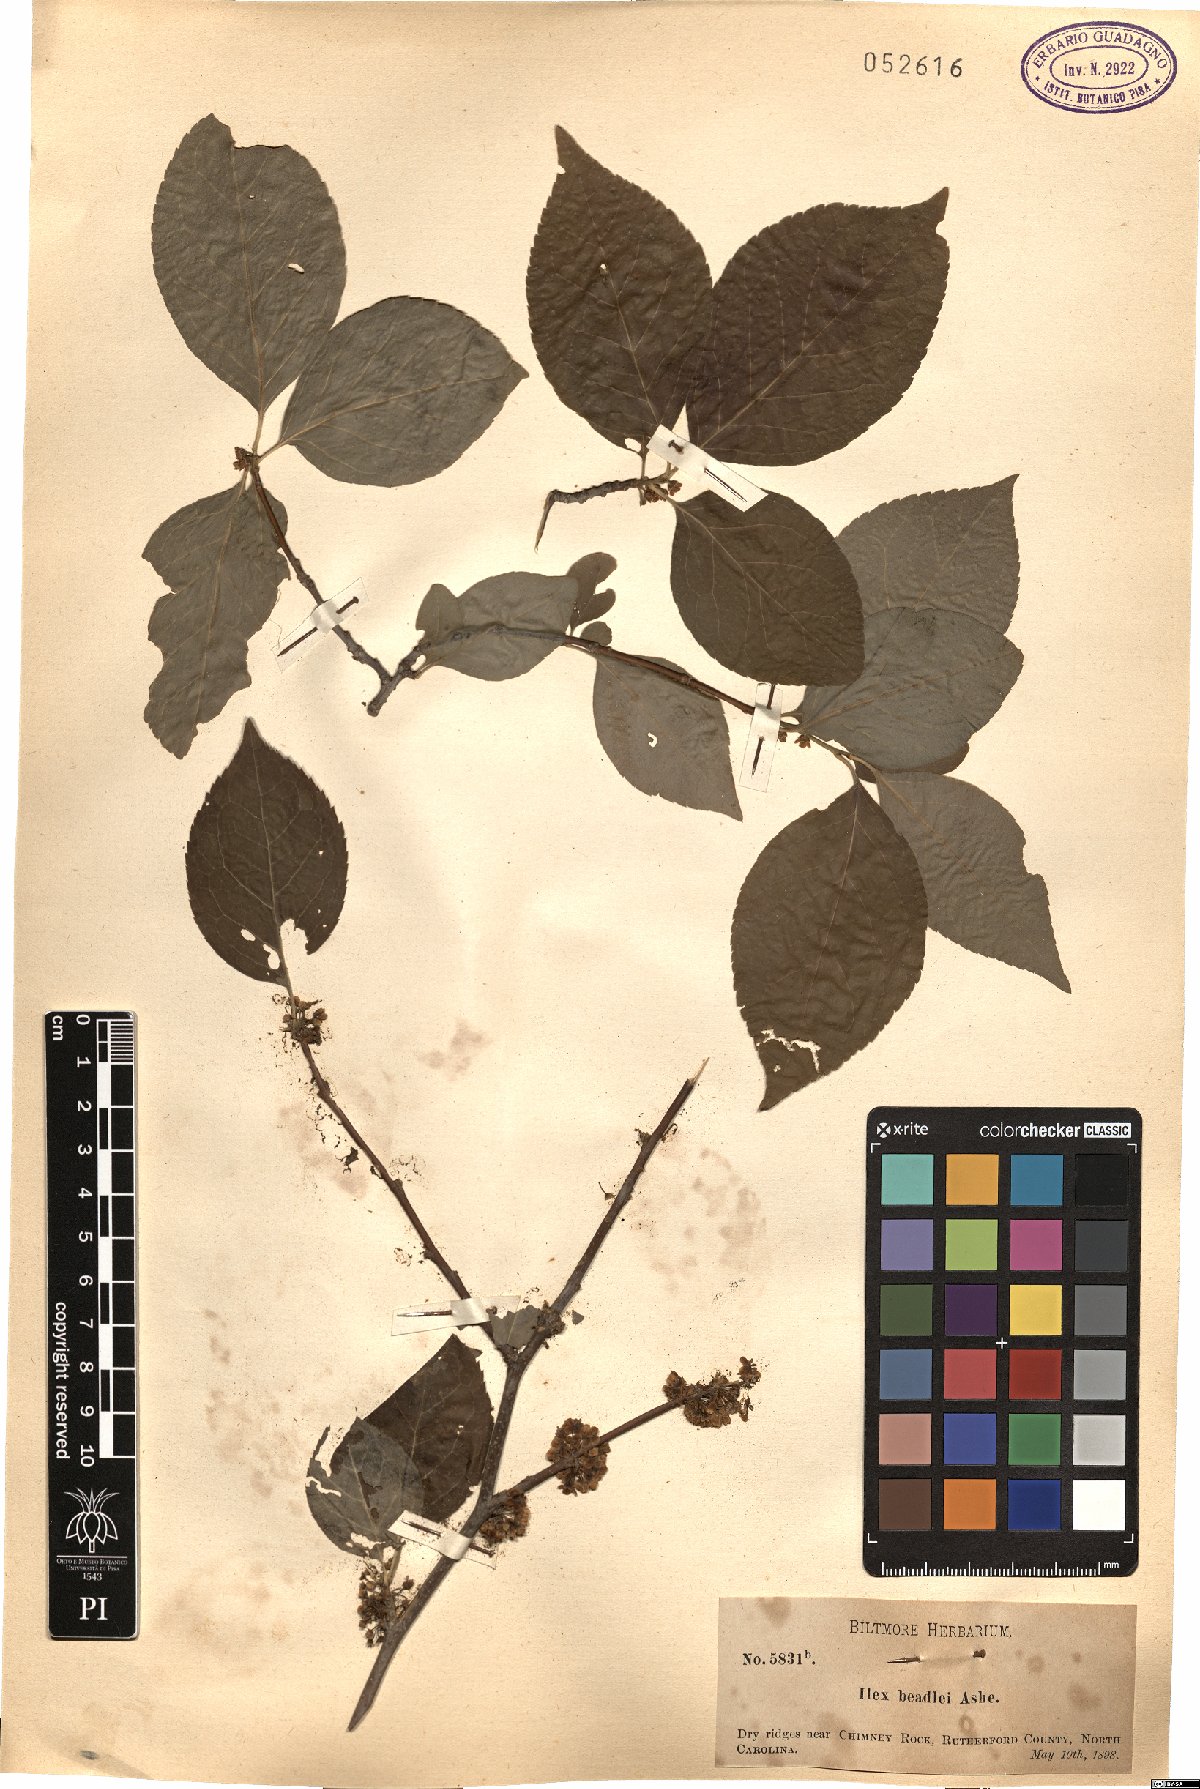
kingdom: Plantae
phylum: Tracheophyta
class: Magnoliopsida
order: Aquifoliales
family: Aquifoliaceae
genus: Ilex
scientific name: Ilex montana
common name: Mountain winterberry
